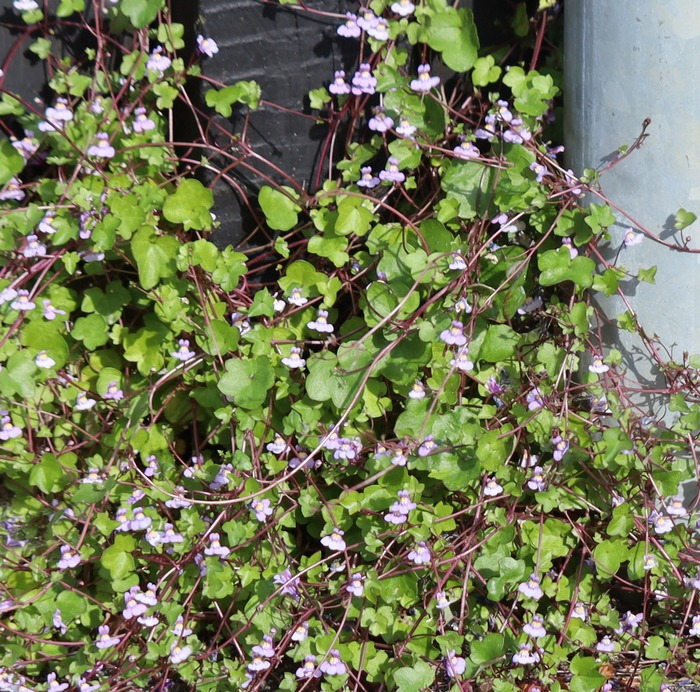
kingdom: Plantae
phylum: Tracheophyta
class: Magnoliopsida
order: Lamiales
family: Plantaginaceae
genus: Cymbalaria
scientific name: Cymbalaria muralis
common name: Vedbend-torskemund
